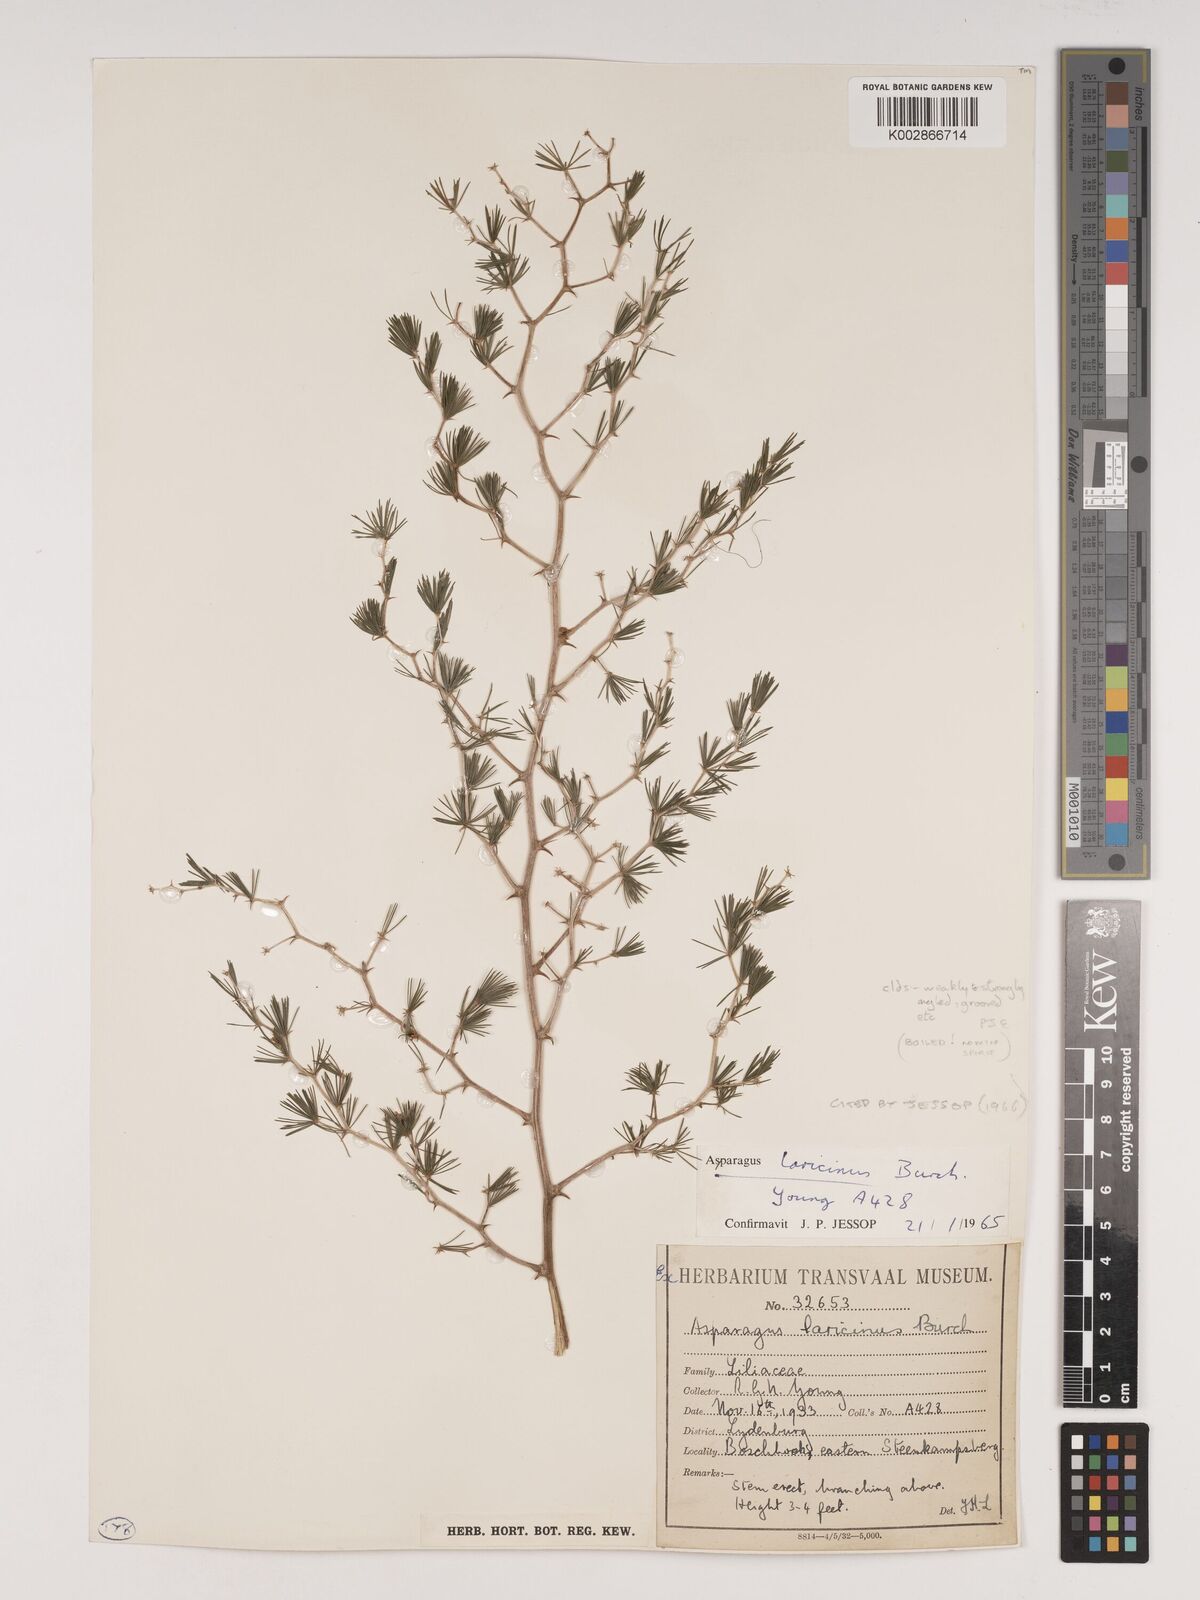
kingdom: Plantae
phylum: Tracheophyta
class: Liliopsida
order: Asparagales
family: Asparagaceae
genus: Asparagus
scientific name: Asparagus laricinus
